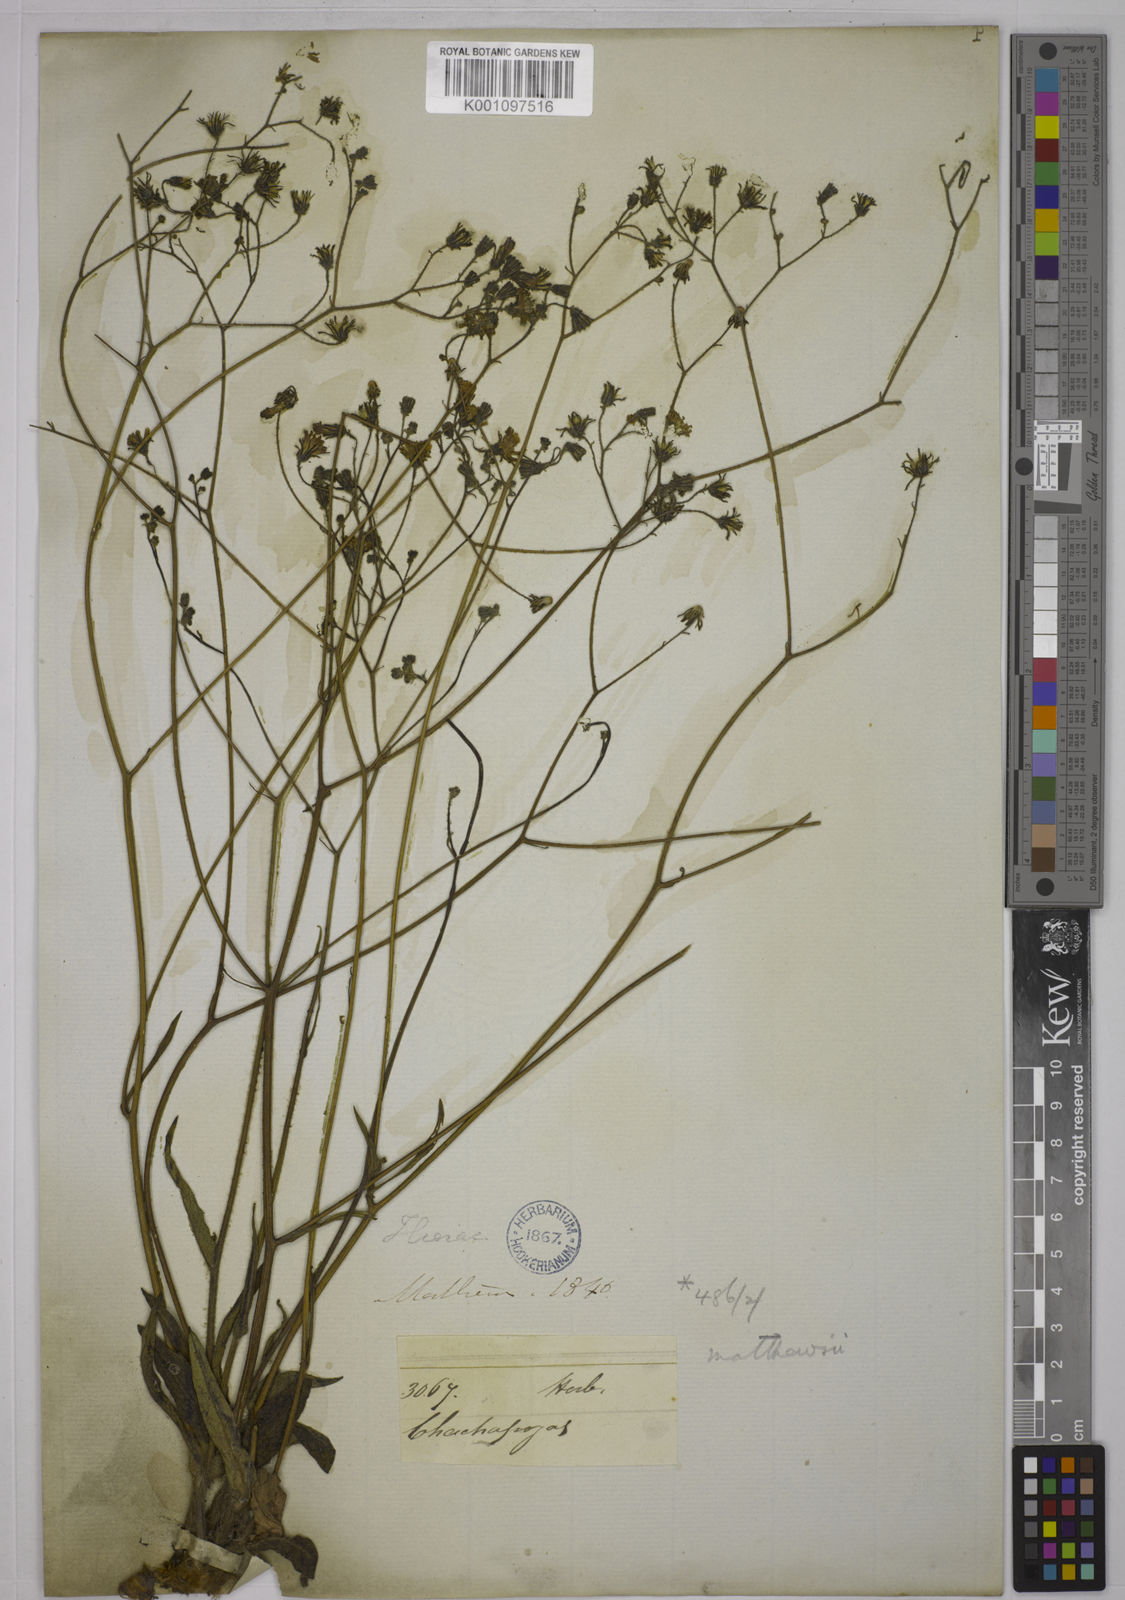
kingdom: Plantae
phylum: Tracheophyta
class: Magnoliopsida
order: Asterales
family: Asteraceae
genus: Hieracium
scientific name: Hieracium roseum
